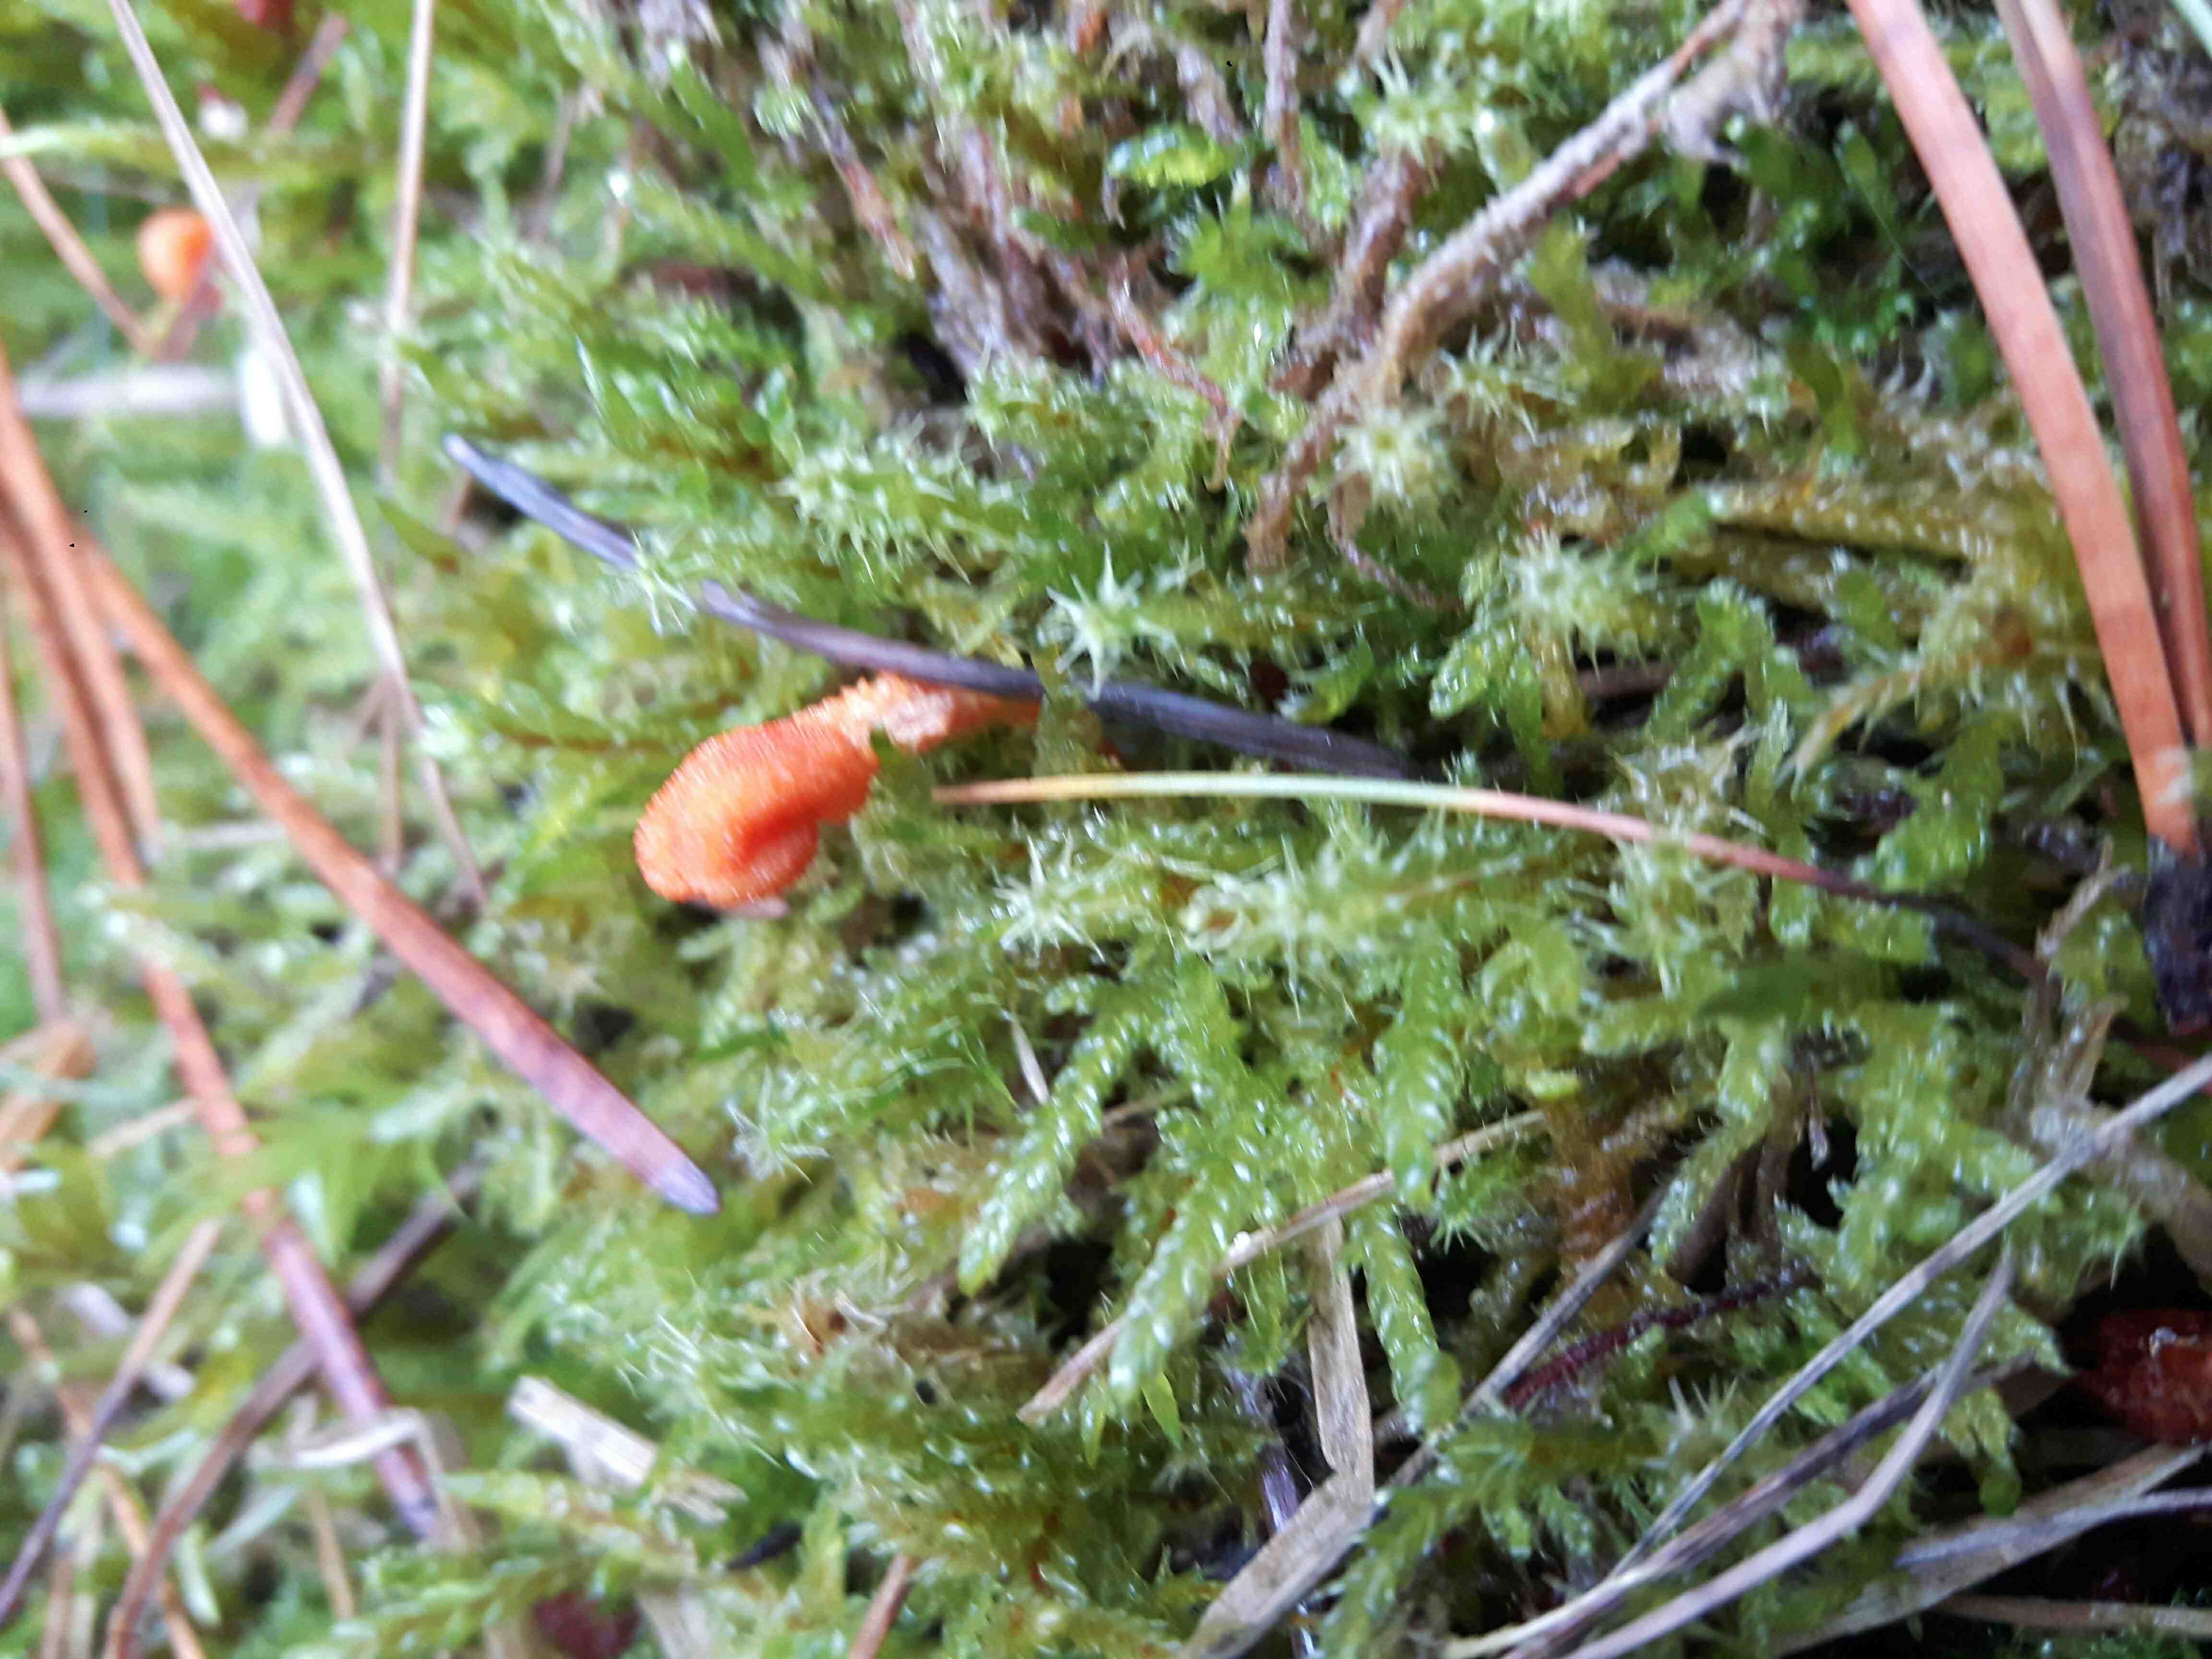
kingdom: Fungi
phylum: Ascomycota
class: Sordariomycetes
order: Hypocreales
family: Cordycipitaceae
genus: Cordyceps
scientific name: Cordyceps militaris
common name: puppe-snyltekølle
